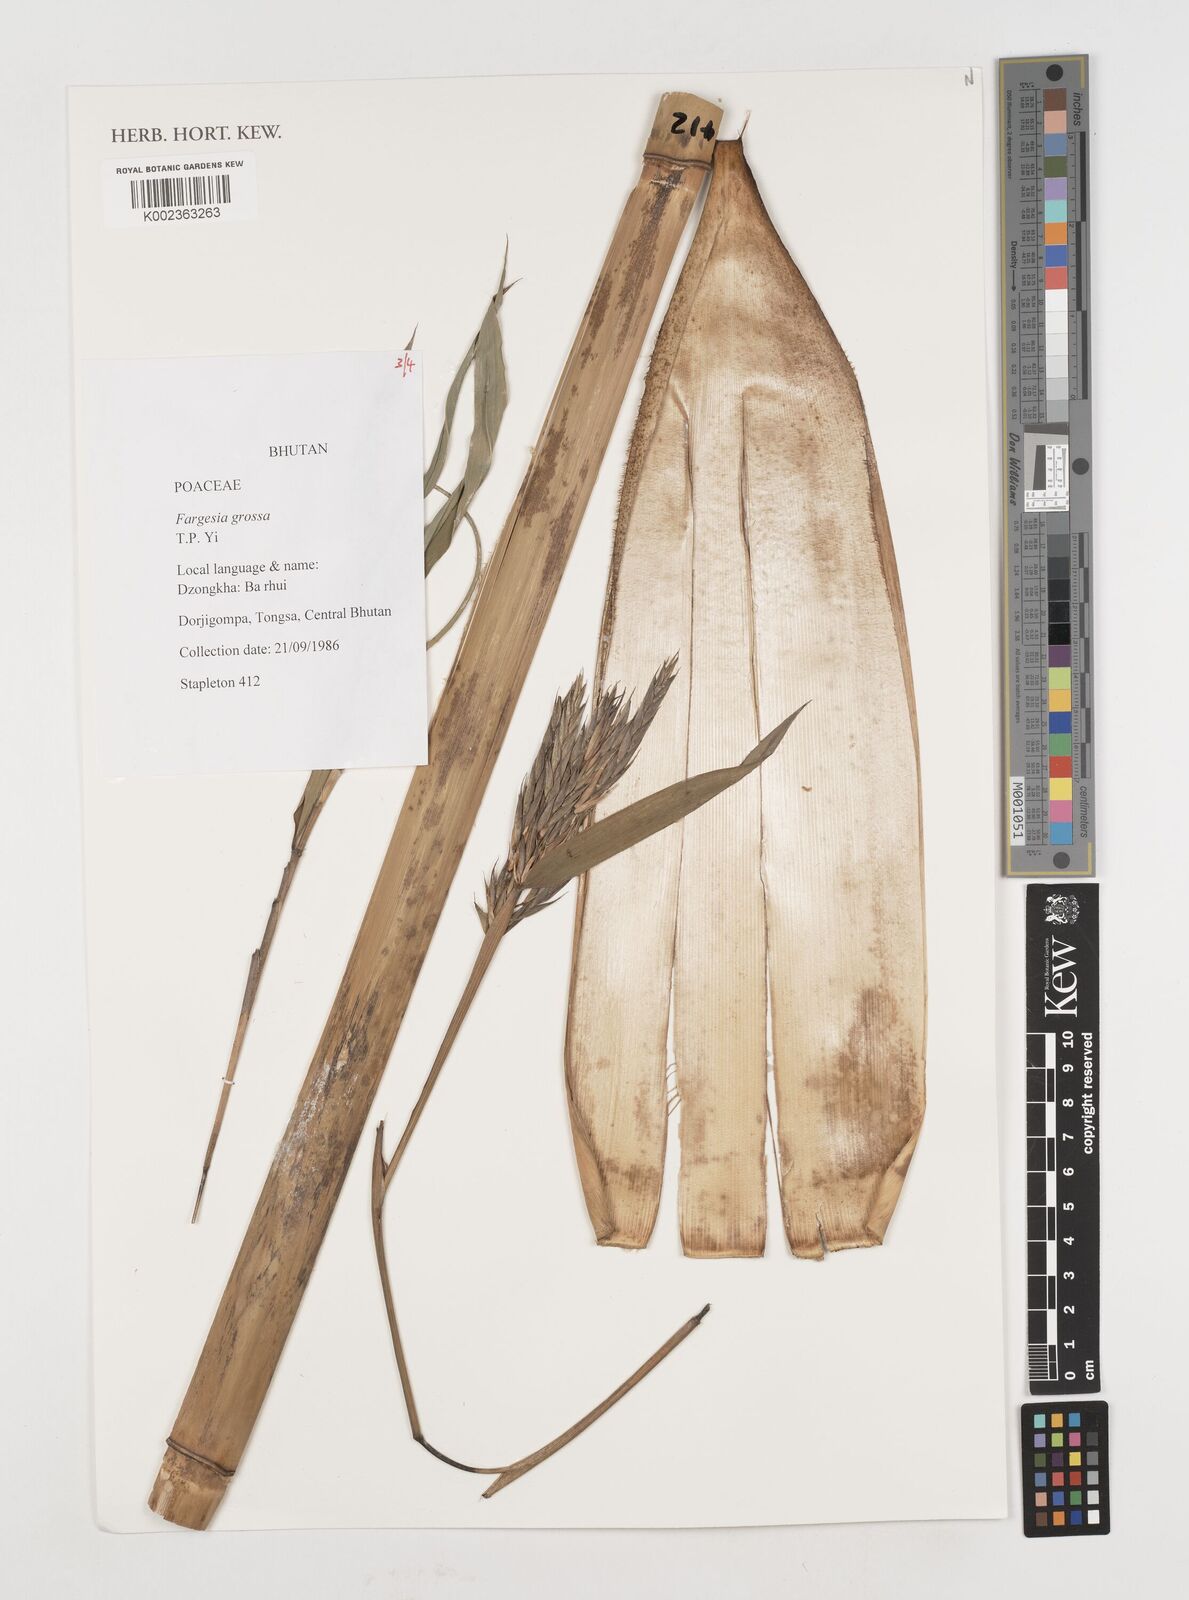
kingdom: Plantae
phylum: Tracheophyta
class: Liliopsida
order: Poales
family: Poaceae
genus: Borinda
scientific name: Borinda grossa
